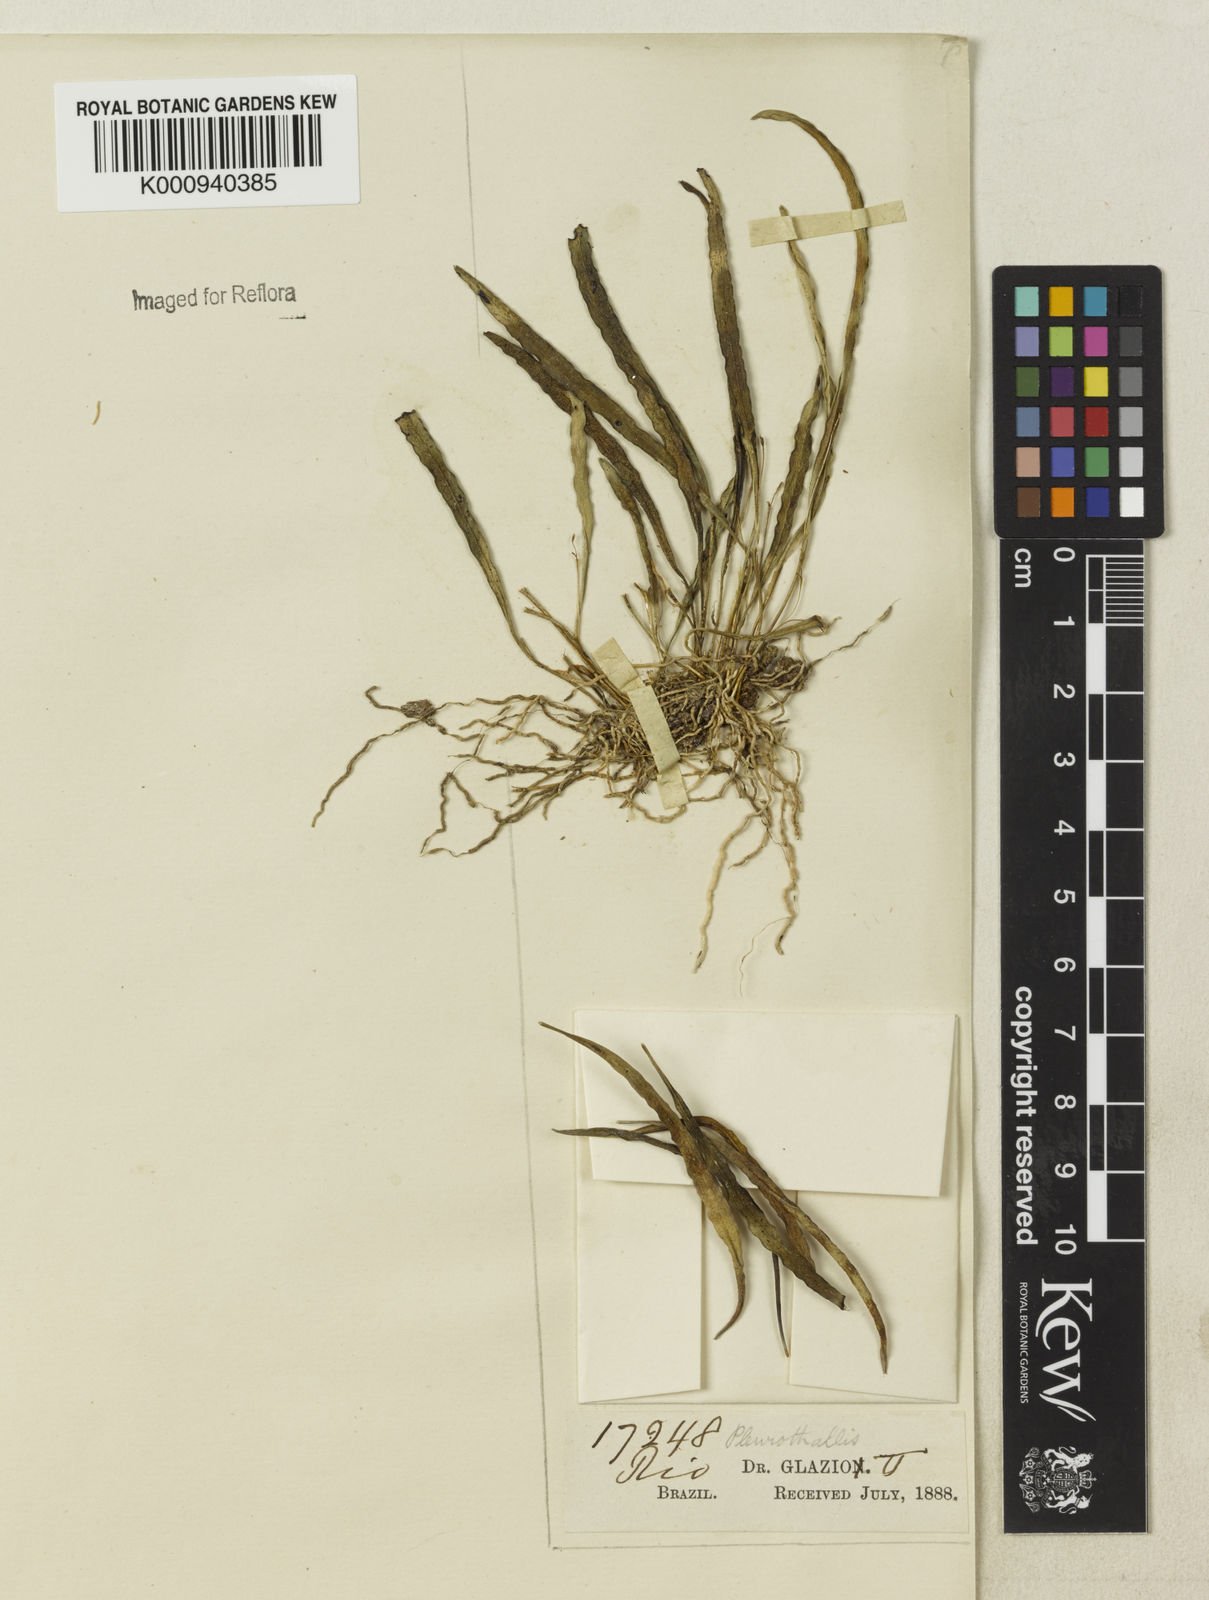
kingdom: Plantae
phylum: Tracheophyta
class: Liliopsida
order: Asparagales
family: Orchidaceae
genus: Pleurothallis
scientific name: Pleurothallis
